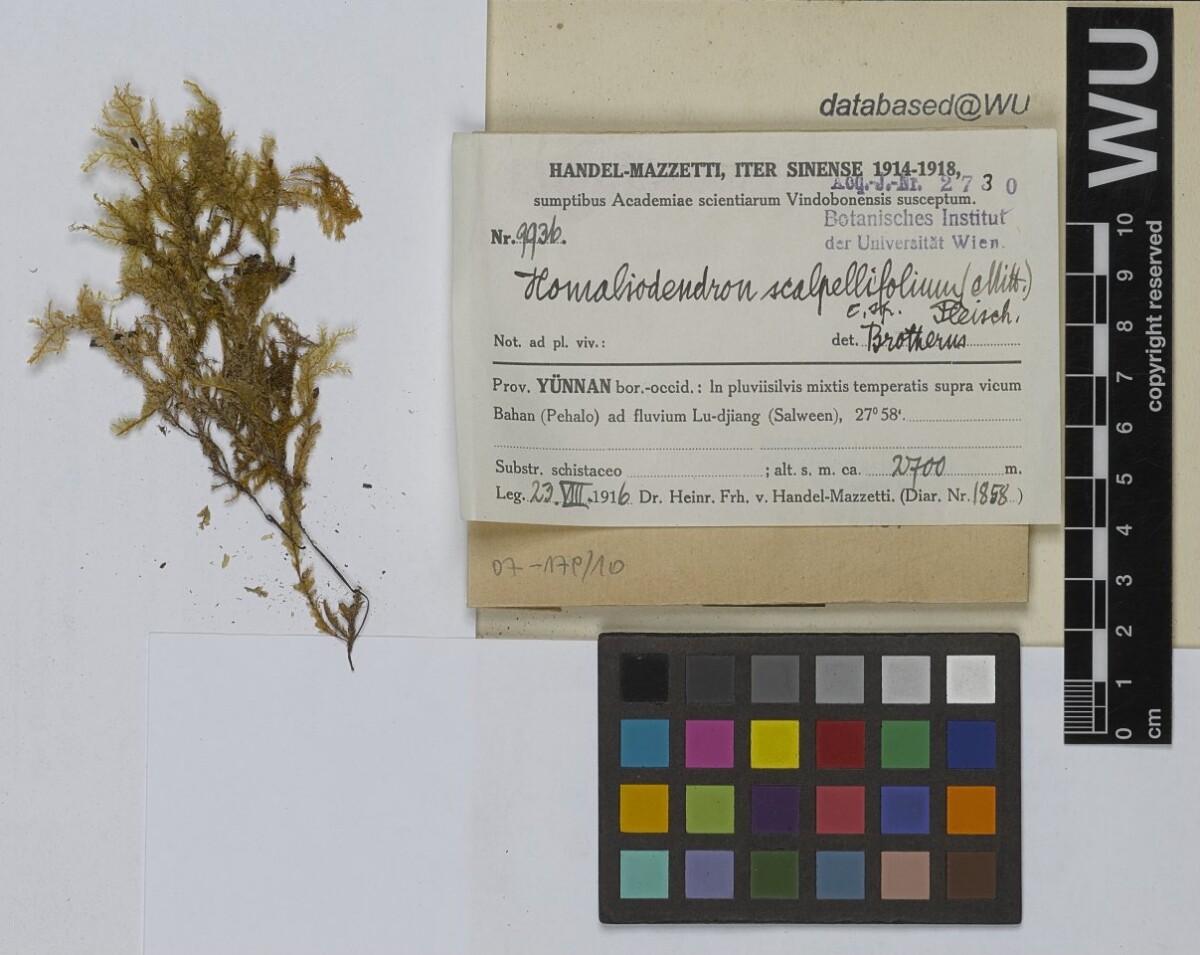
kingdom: Plantae
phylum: Bryophyta
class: Bryopsida
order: Hypnales
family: Neckeraceae
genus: Homaliodendron
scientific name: Homaliodendron flabellatum
